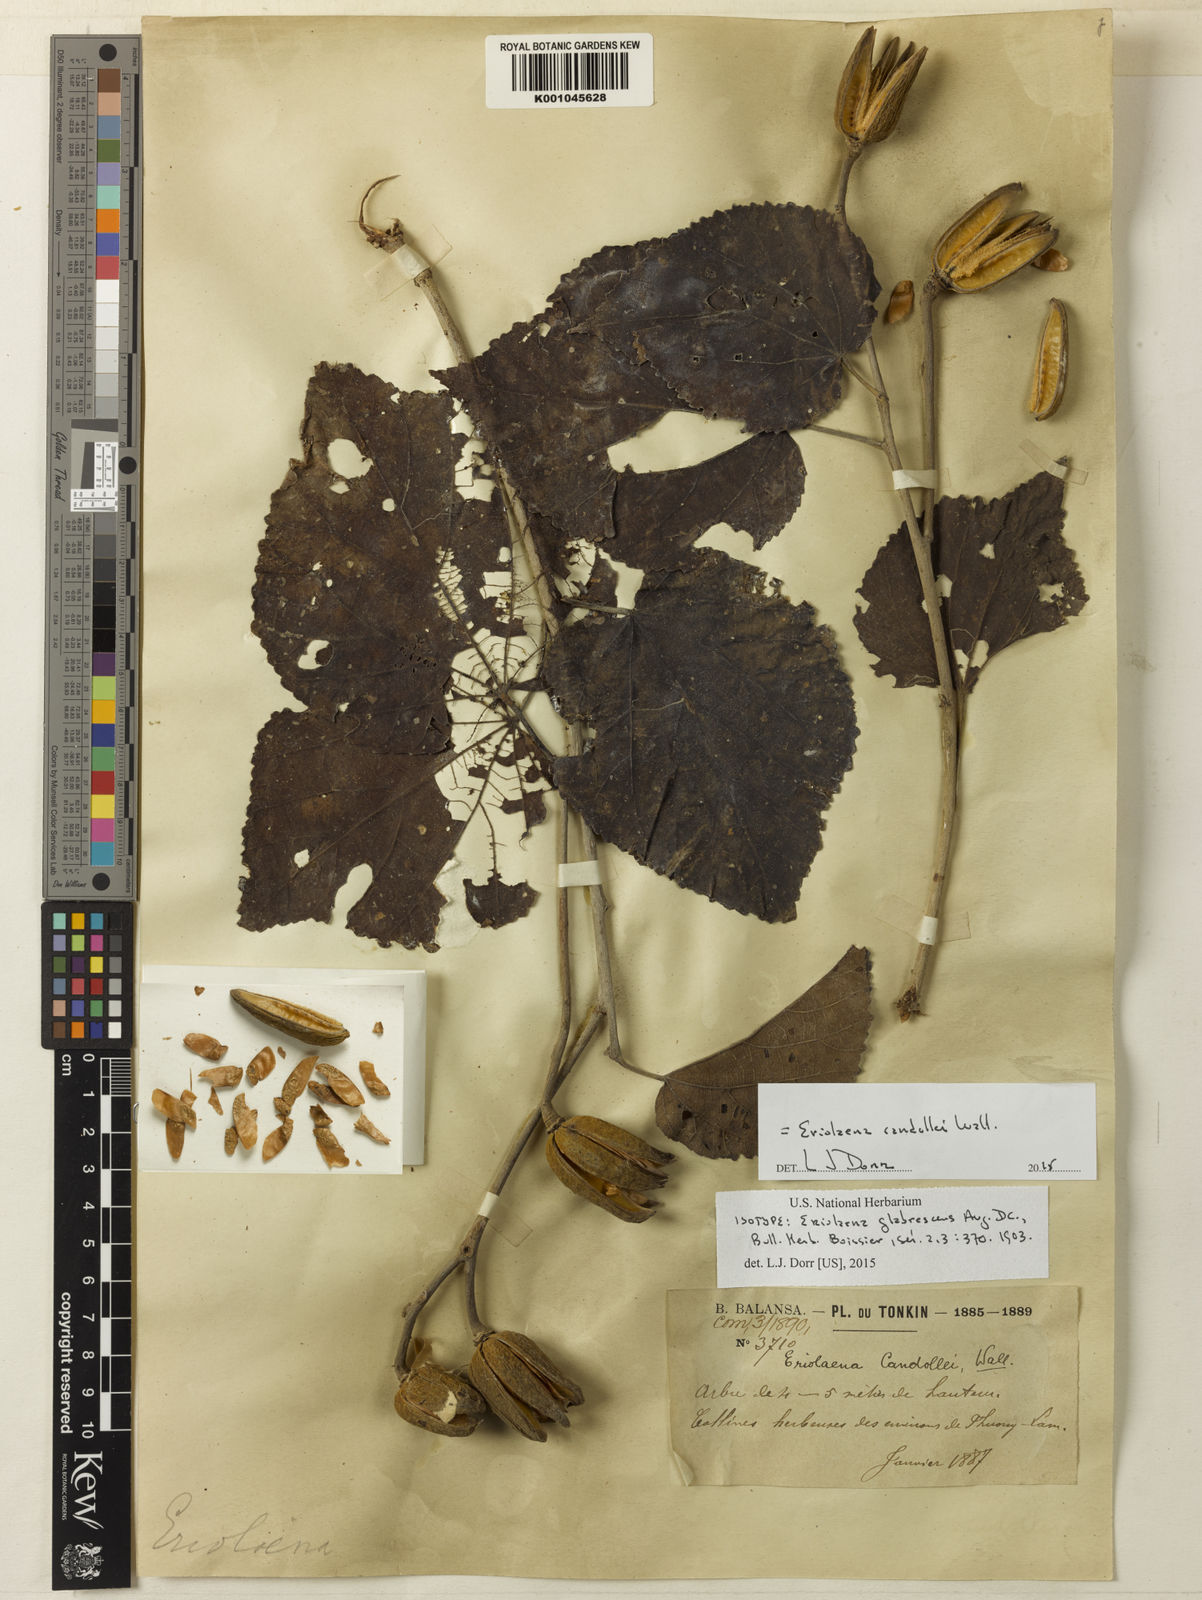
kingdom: Plantae
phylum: Tracheophyta
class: Magnoliopsida
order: Malvales
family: Malvaceae
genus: Eriolaena
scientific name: Eriolaena candollei
